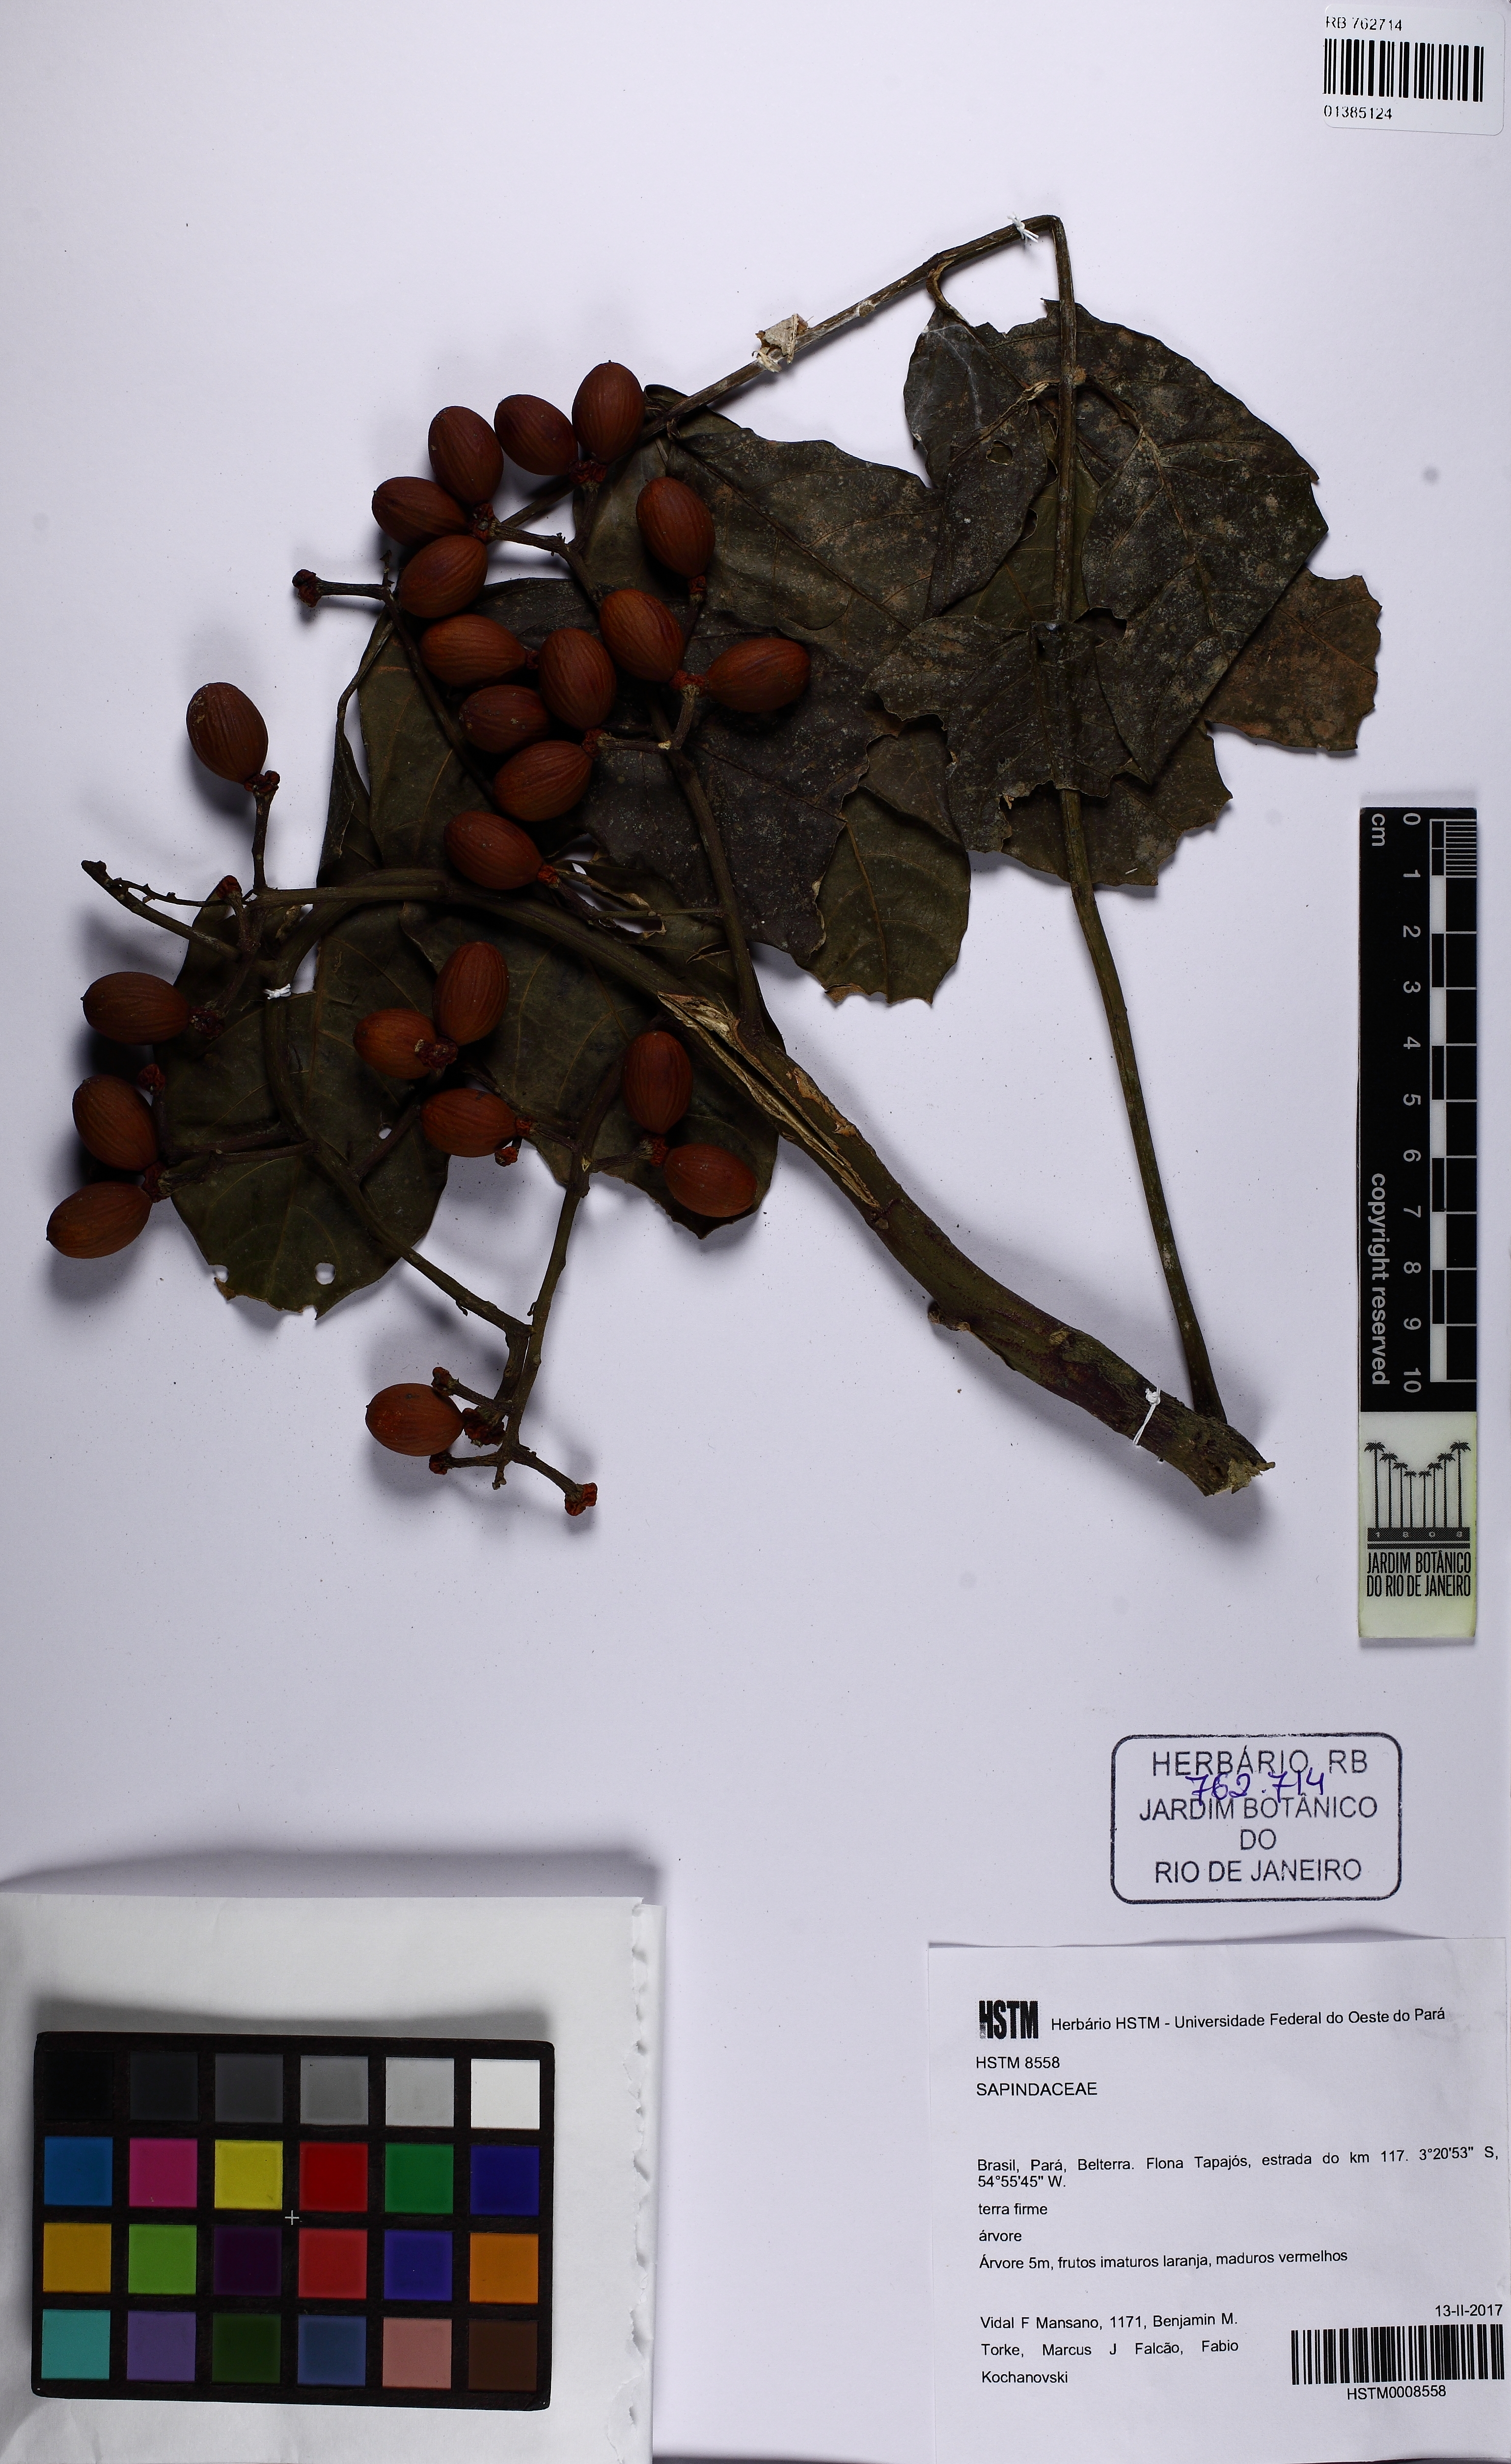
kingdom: Plantae
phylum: Tracheophyta
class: Magnoliopsida
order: Sapindales
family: Simaroubaceae
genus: Picrolemma
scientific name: Picrolemma sprucei
